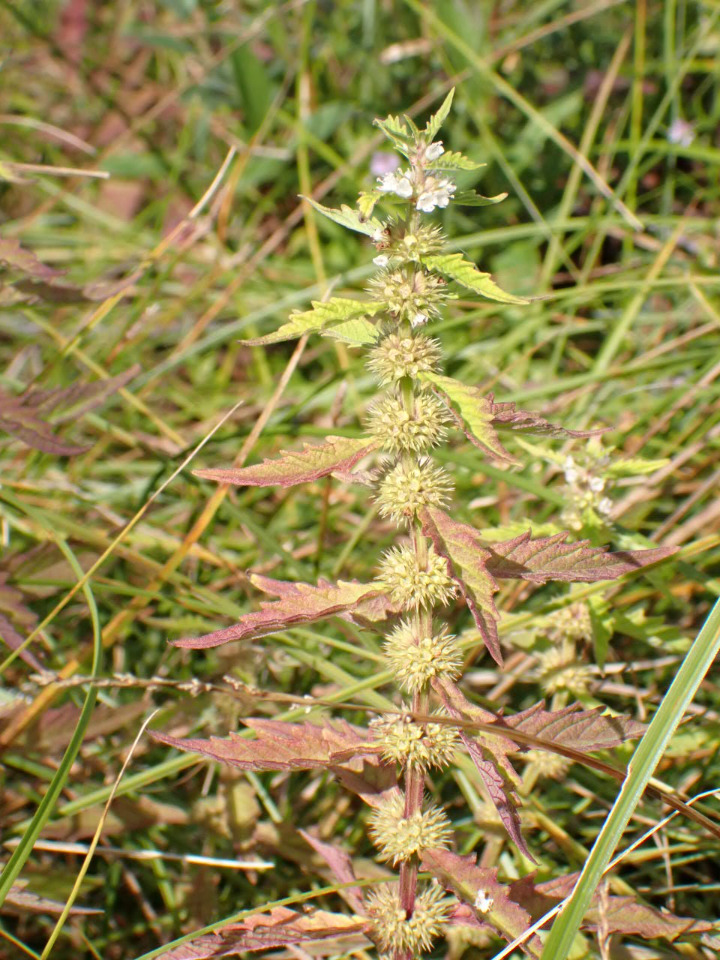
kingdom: Plantae
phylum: Tracheophyta
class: Magnoliopsida
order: Lamiales
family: Lamiaceae
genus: Lycopus
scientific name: Lycopus europaeus
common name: Sværtevæld
